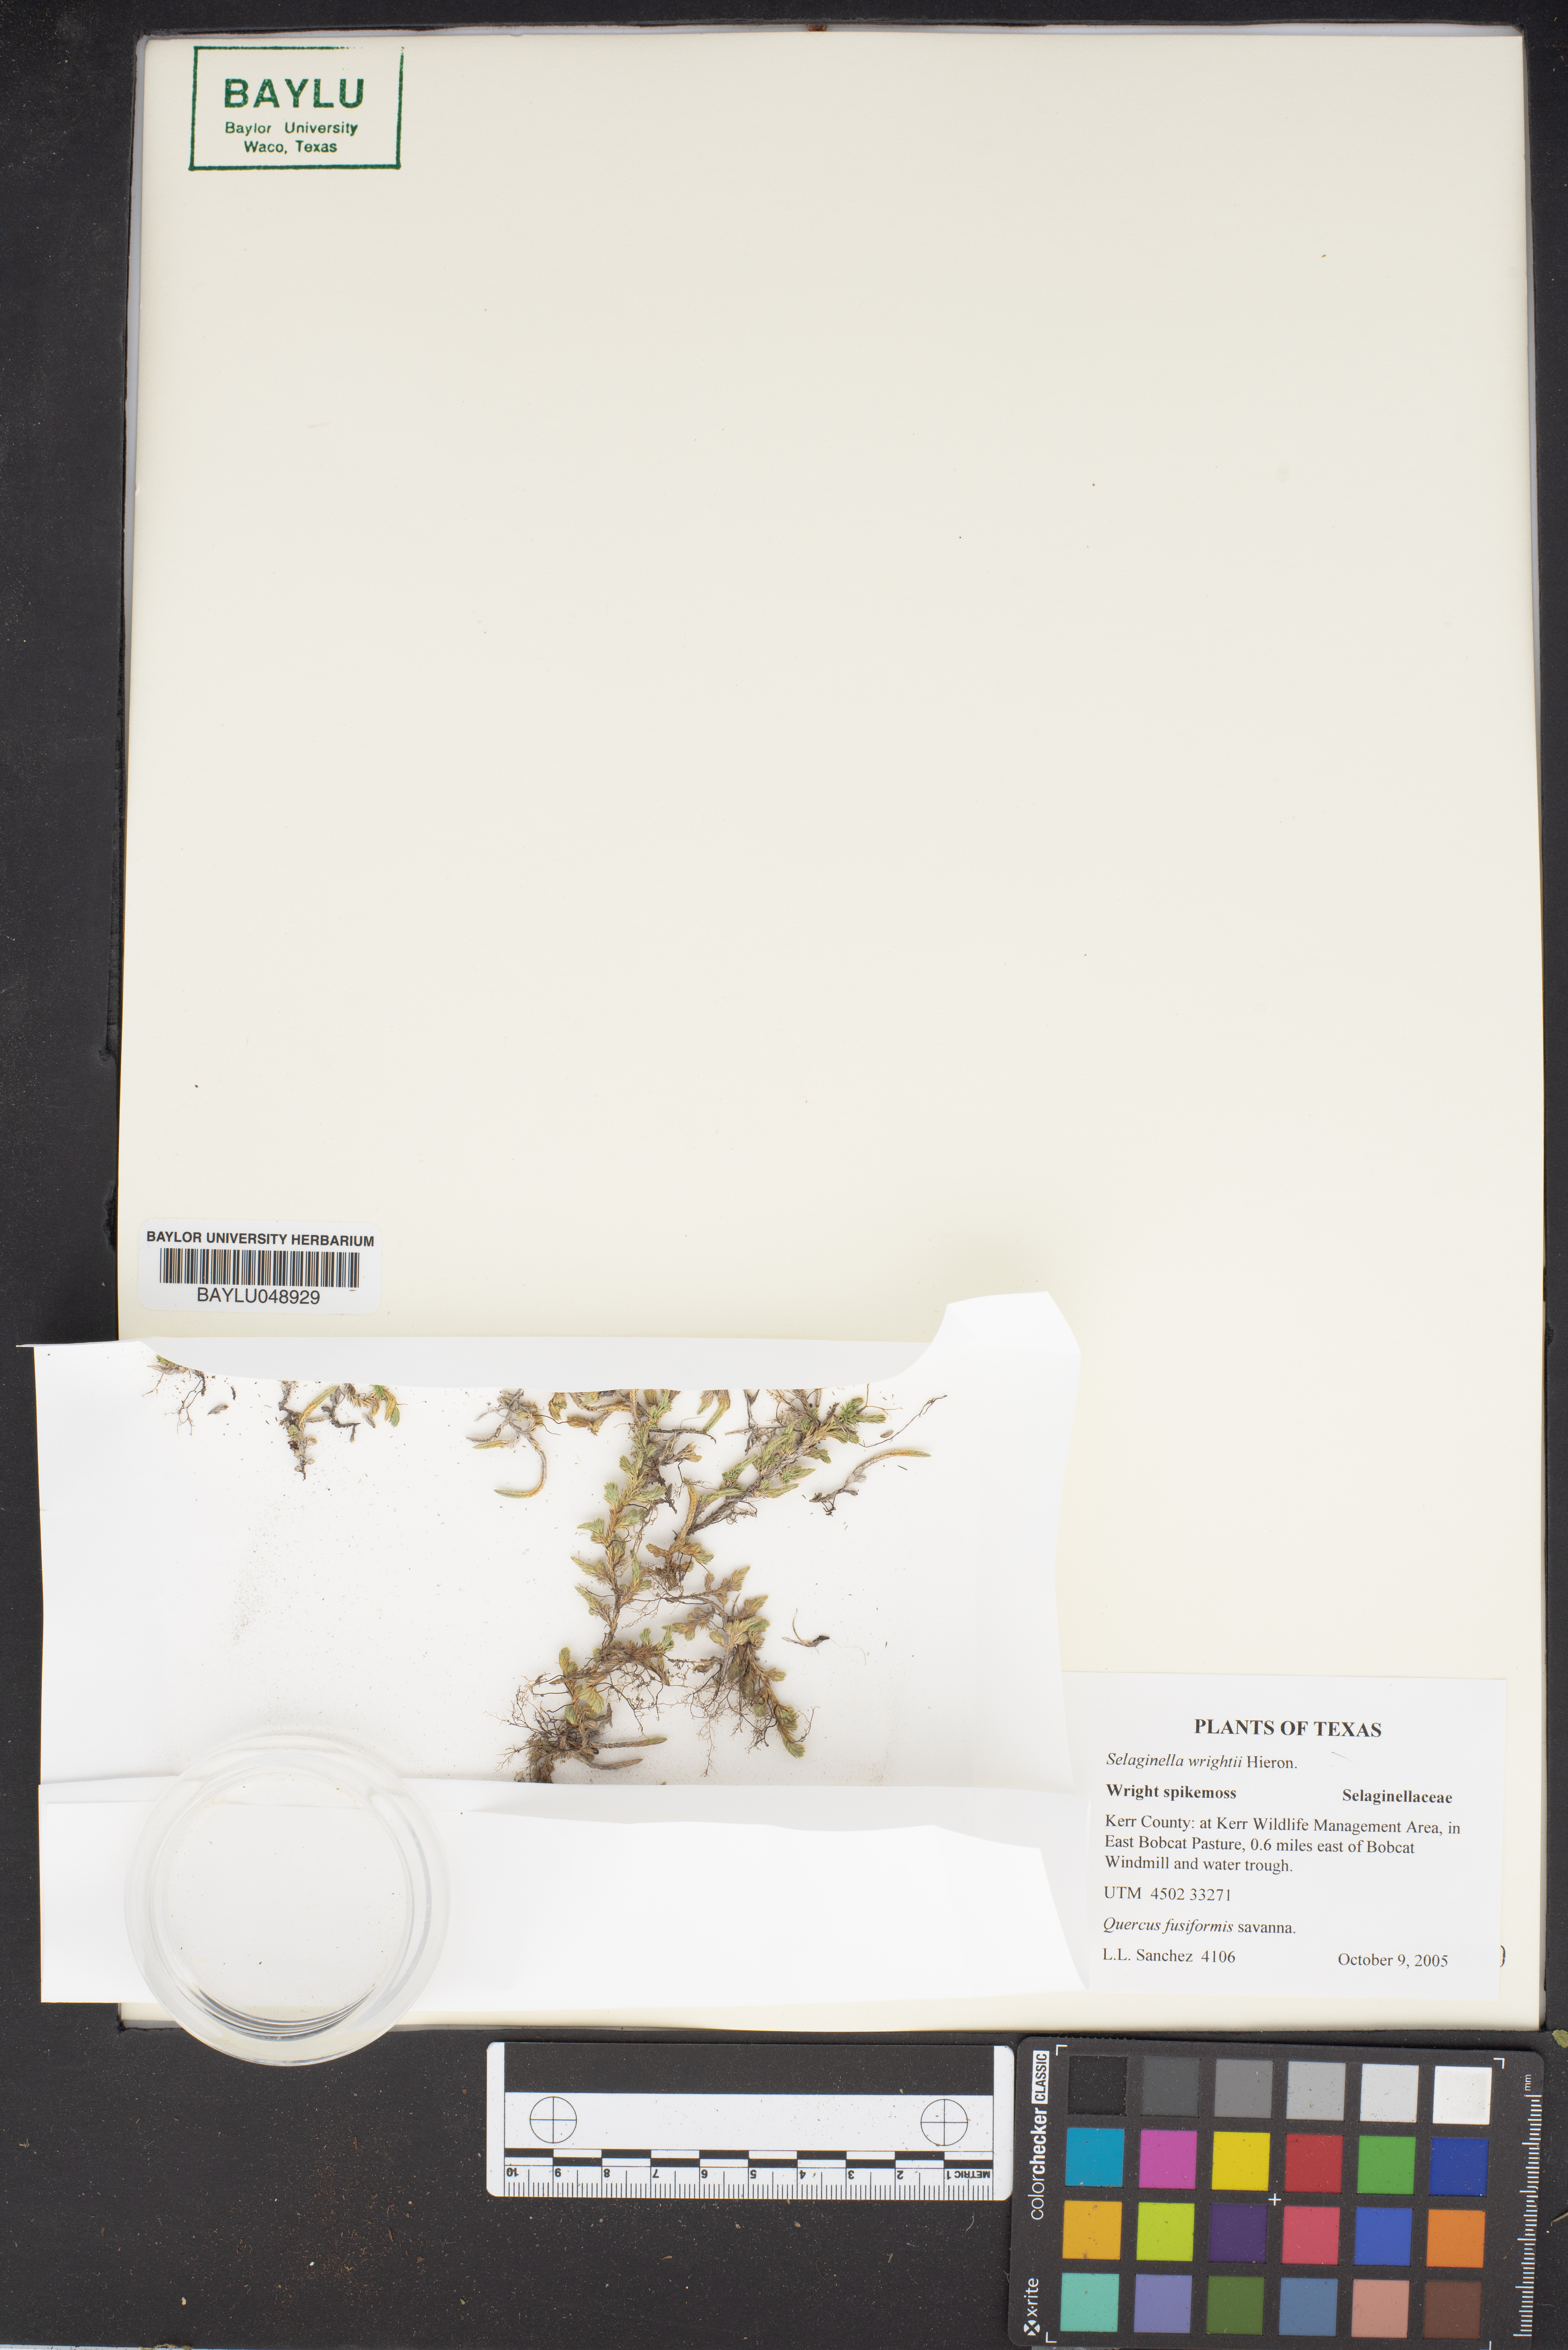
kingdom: Plantae
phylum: Tracheophyta
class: Lycopodiopsida
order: Selaginellales
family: Selaginellaceae
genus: Selaginella
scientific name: Selaginella wrightii
